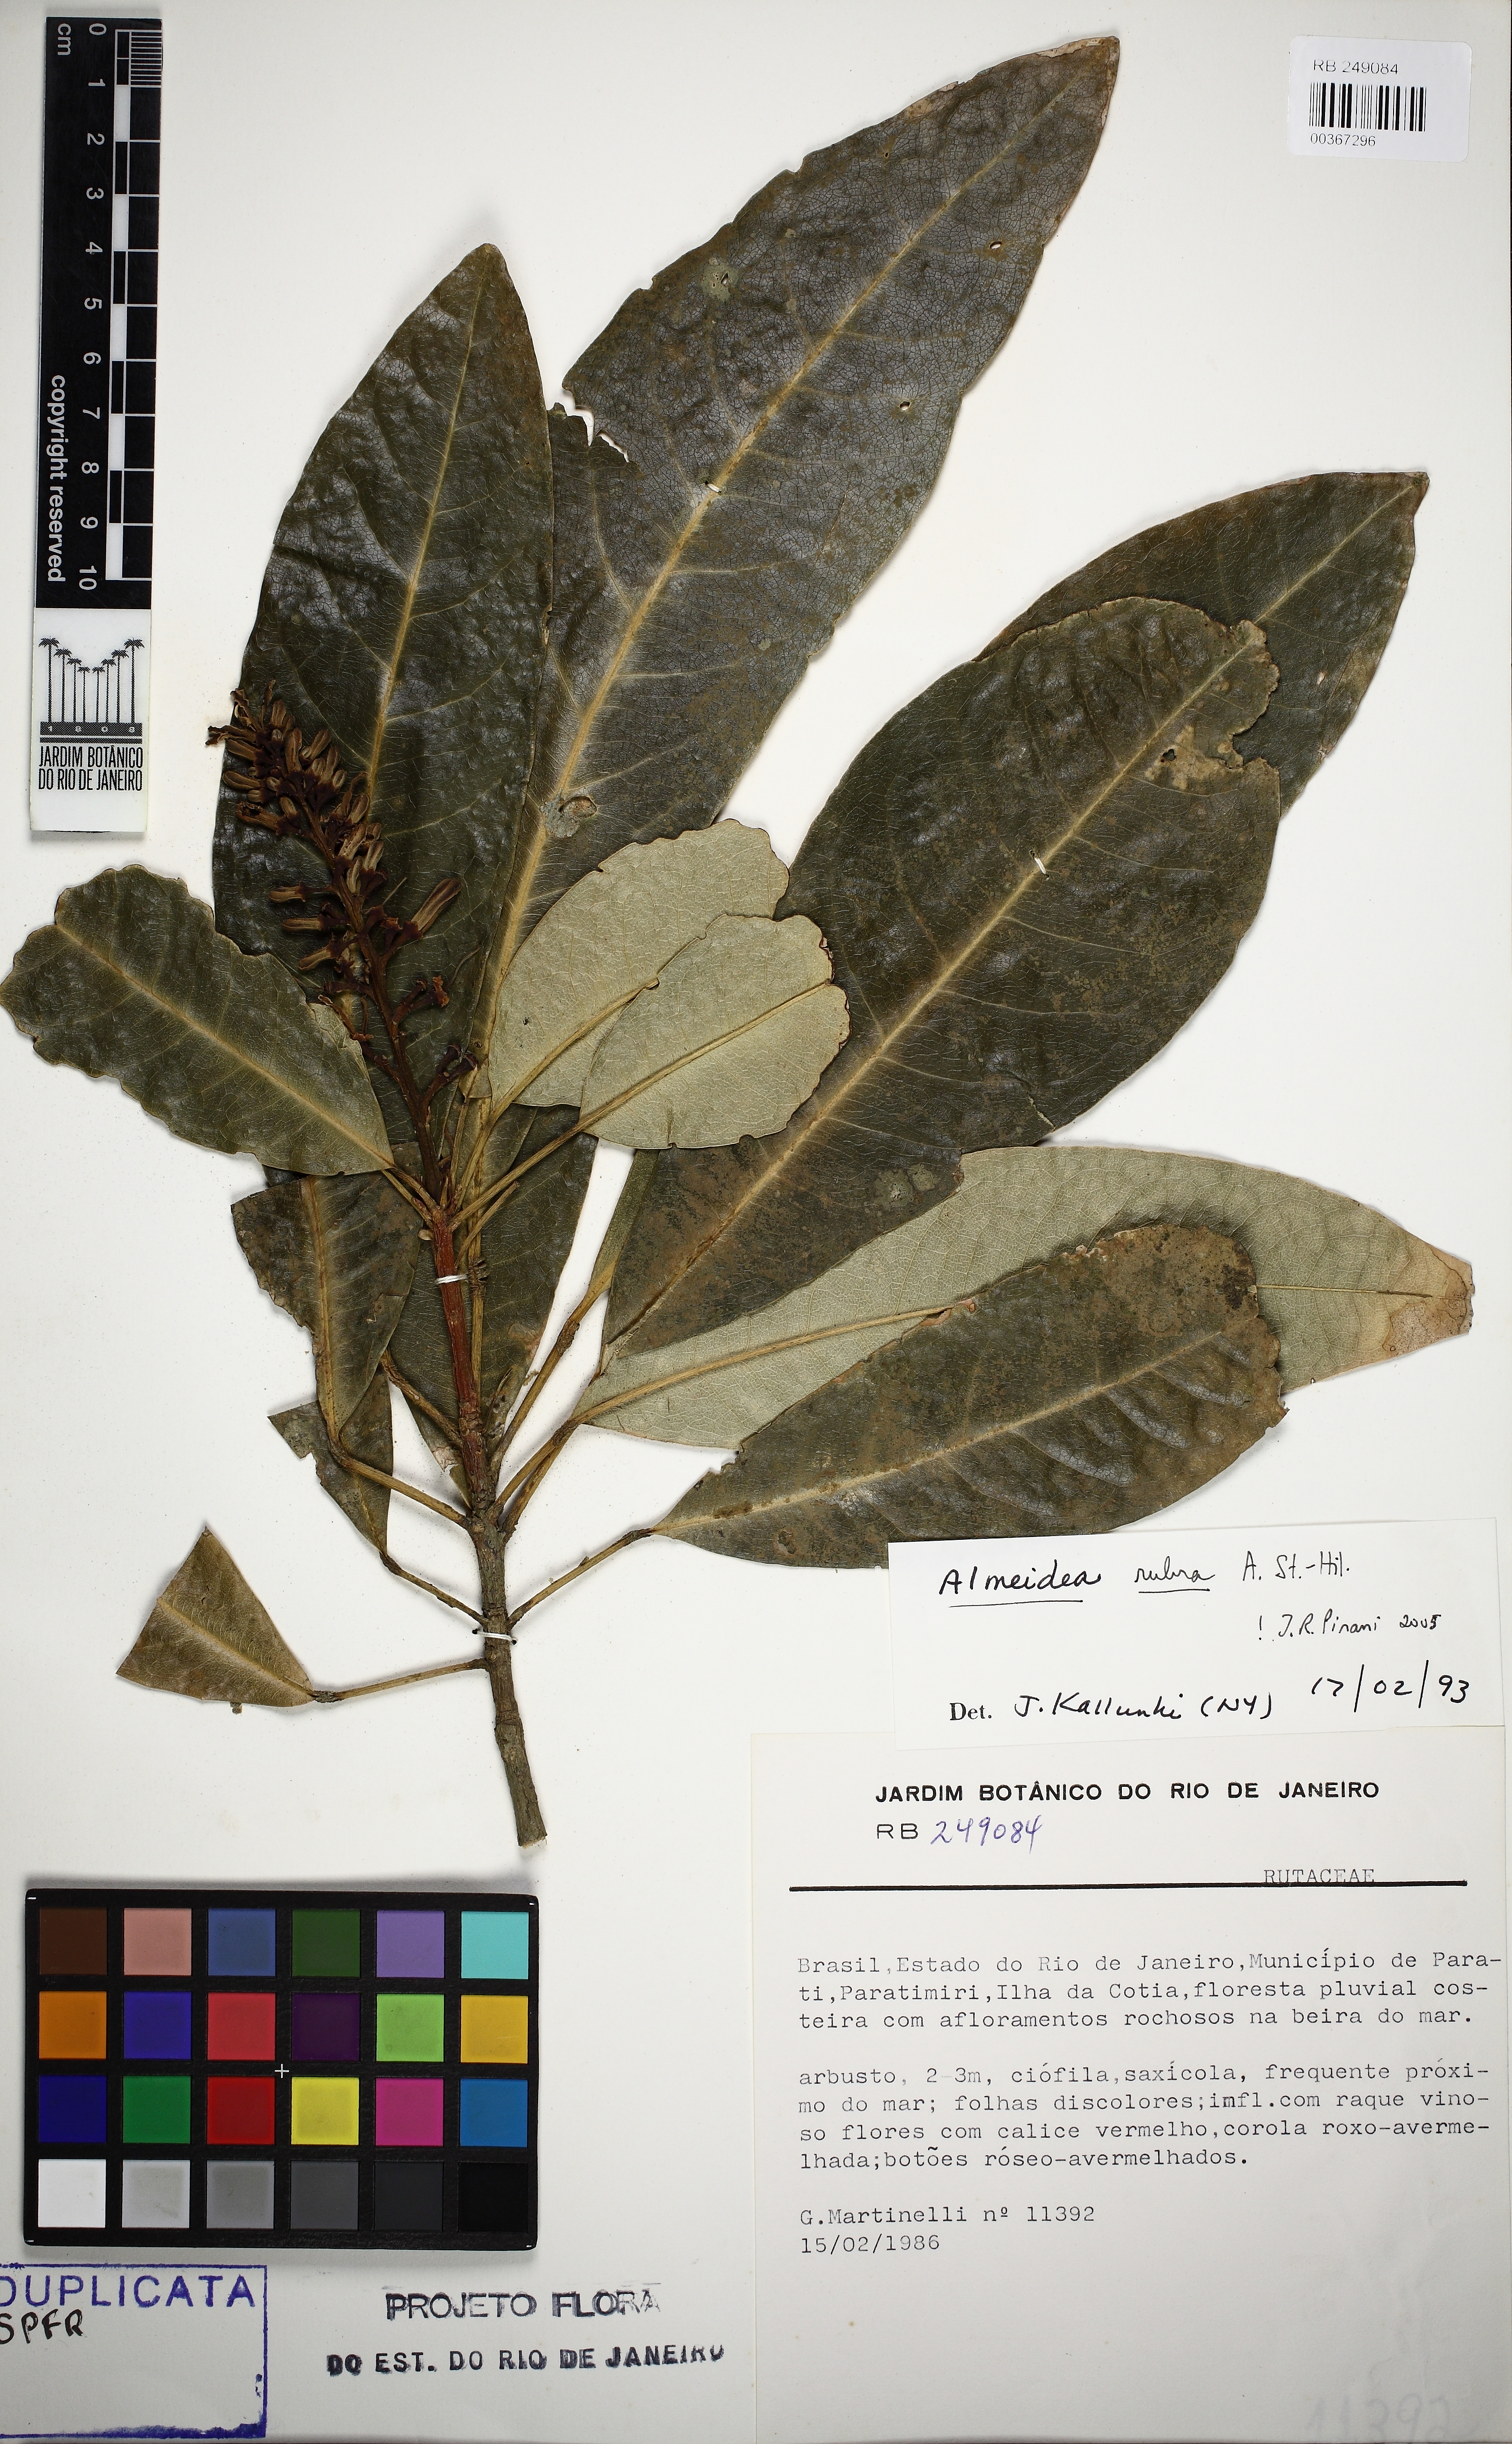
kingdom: Plantae
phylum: Tracheophyta
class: Magnoliopsida
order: Sapindales
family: Rutaceae
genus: Conchocarpus
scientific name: Conchocarpus ruber
